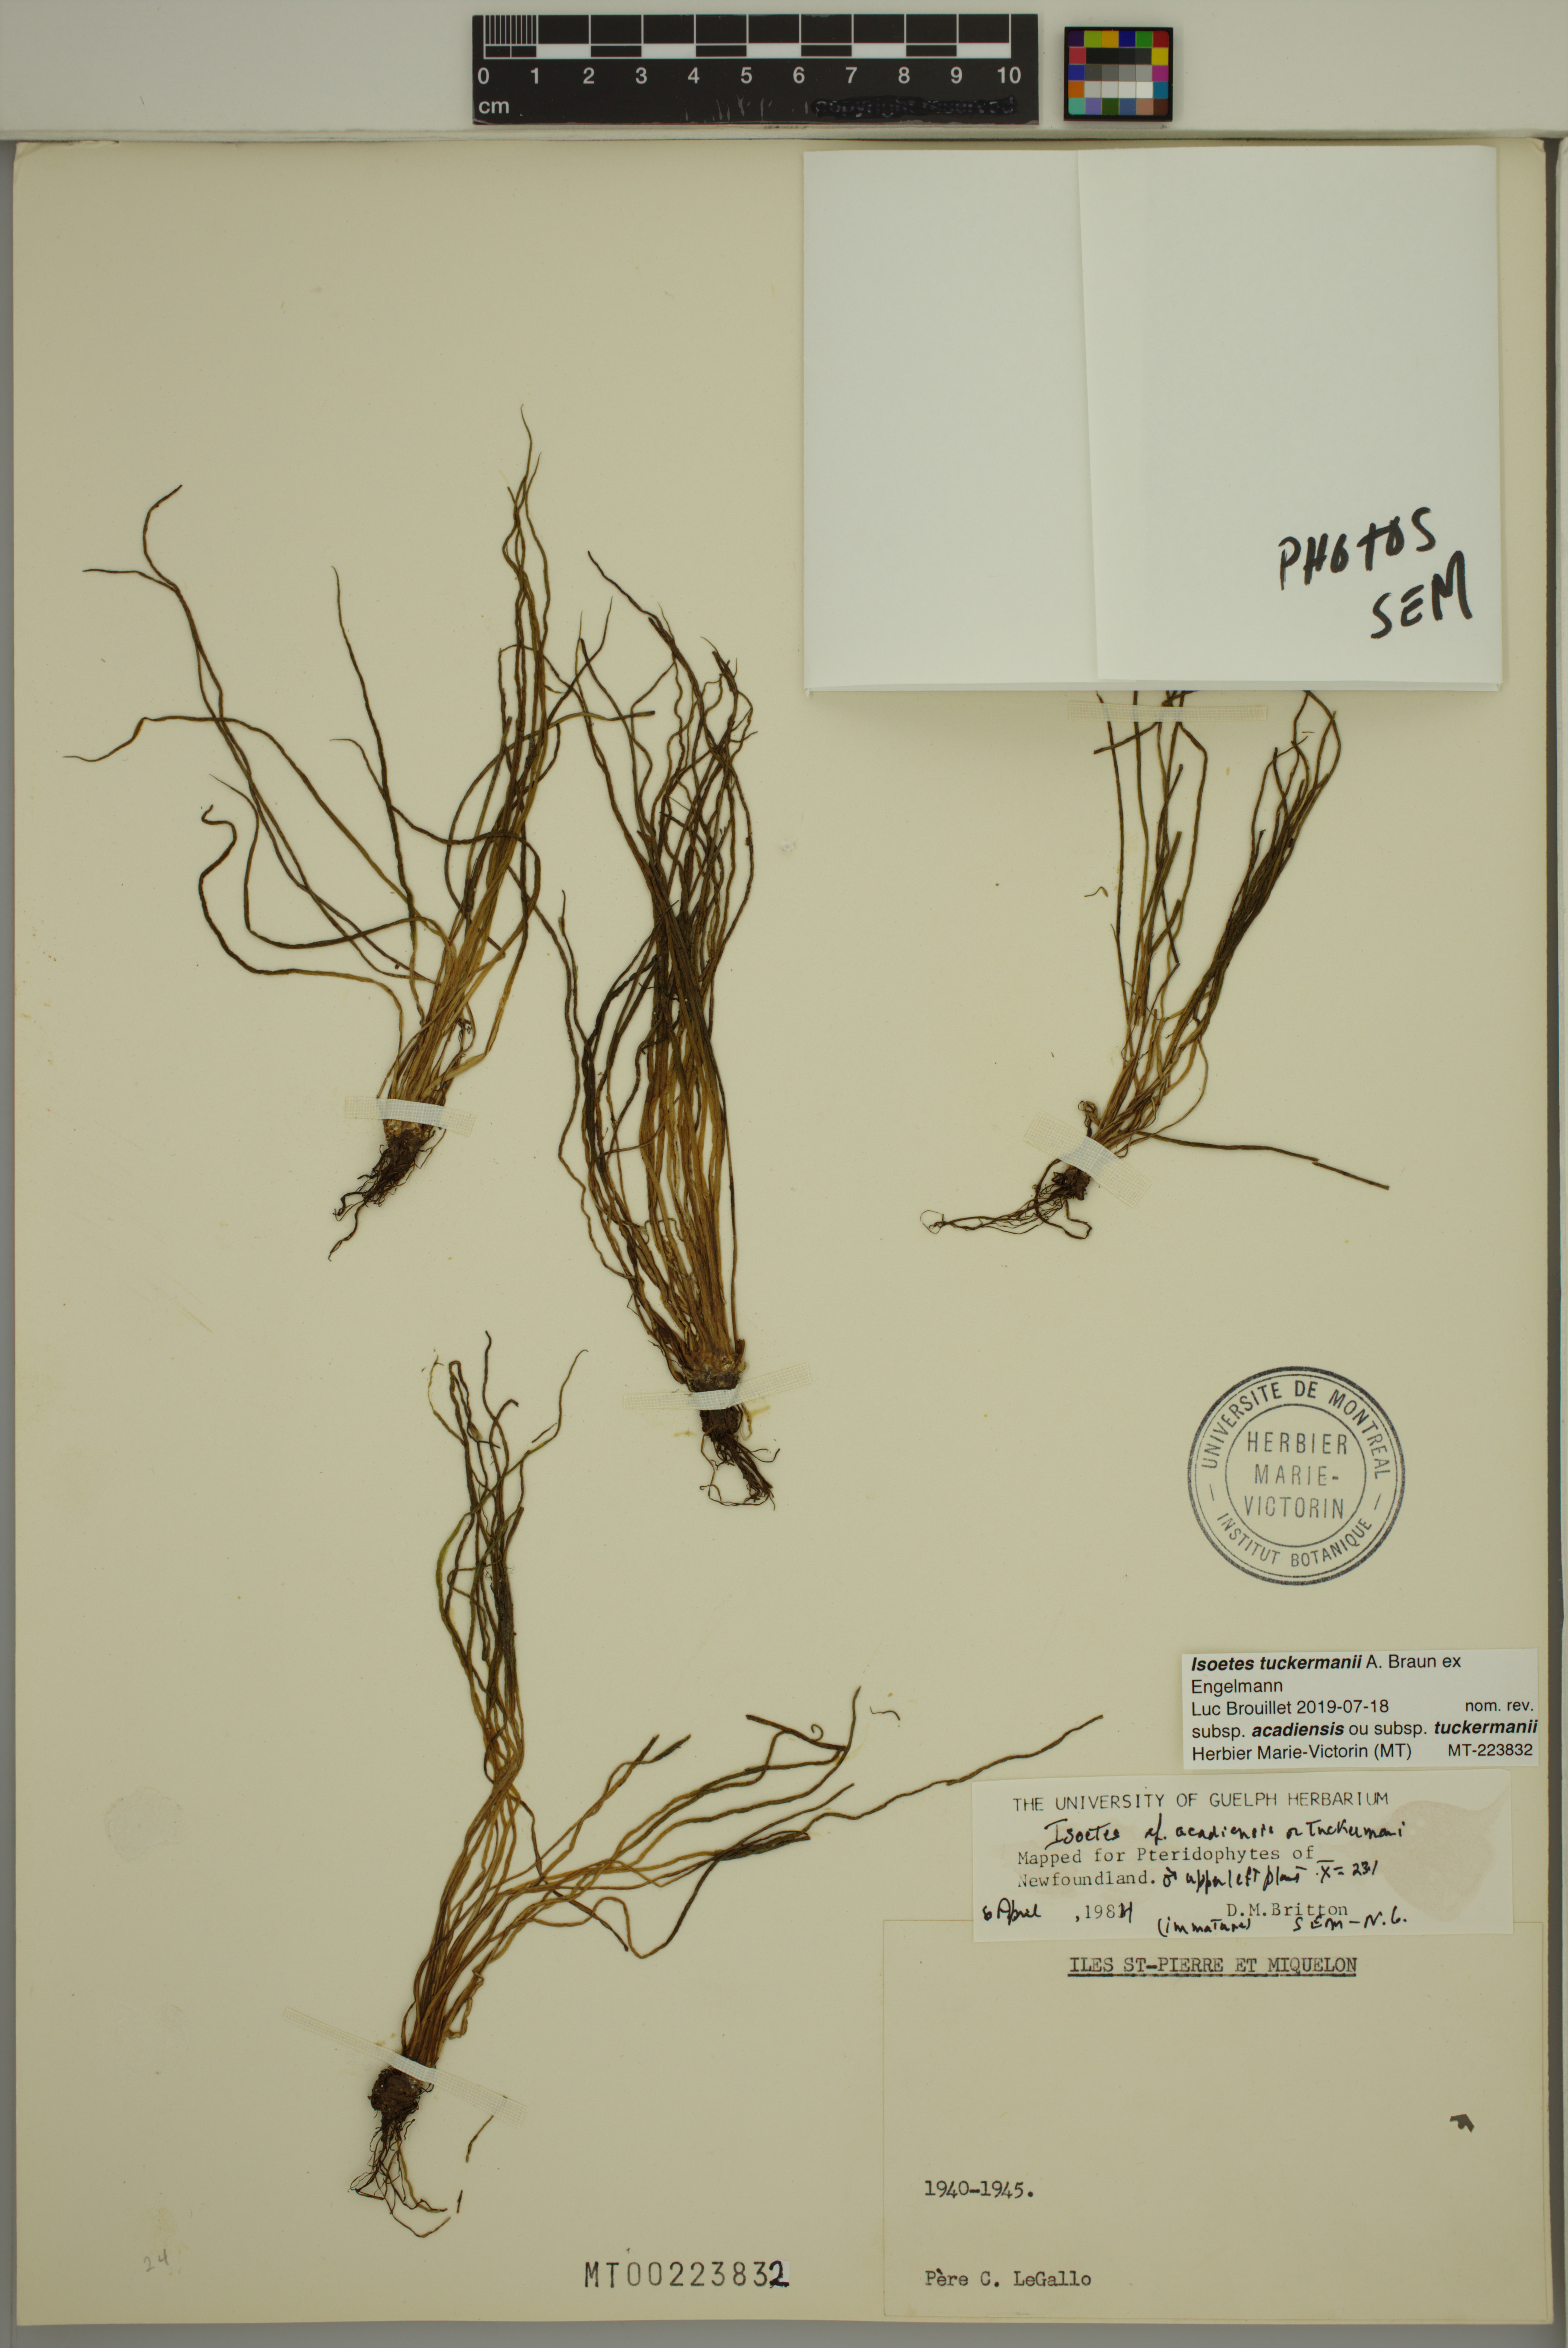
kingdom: Plantae
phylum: Tracheophyta
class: Lycopodiopsida
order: Isoetales
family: Isoetaceae
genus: Isoetes
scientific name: Isoetes tuckermanii
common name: Tuckerman's quillwort
